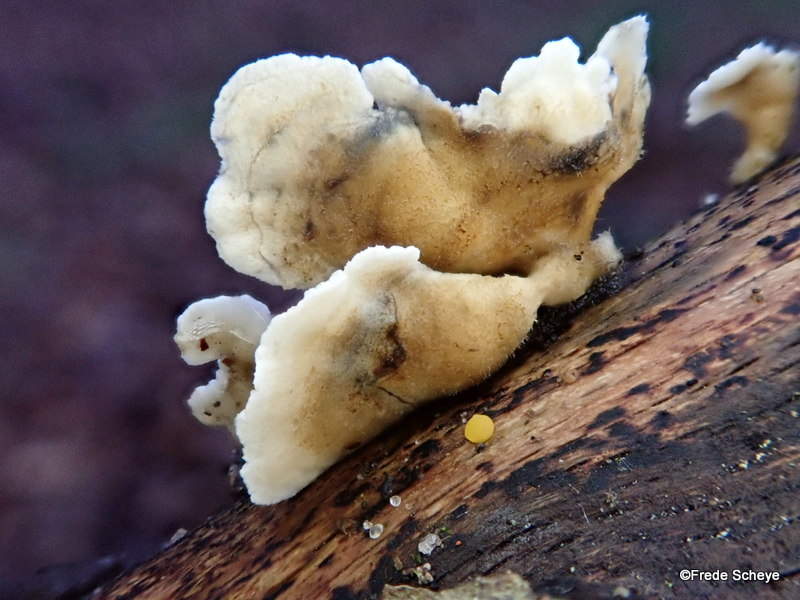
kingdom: Fungi
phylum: Basidiomycota
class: Agaricomycetes
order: Amylocorticiales
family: Amylocorticiaceae
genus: Plicaturopsis
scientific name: Plicaturopsis crispa
